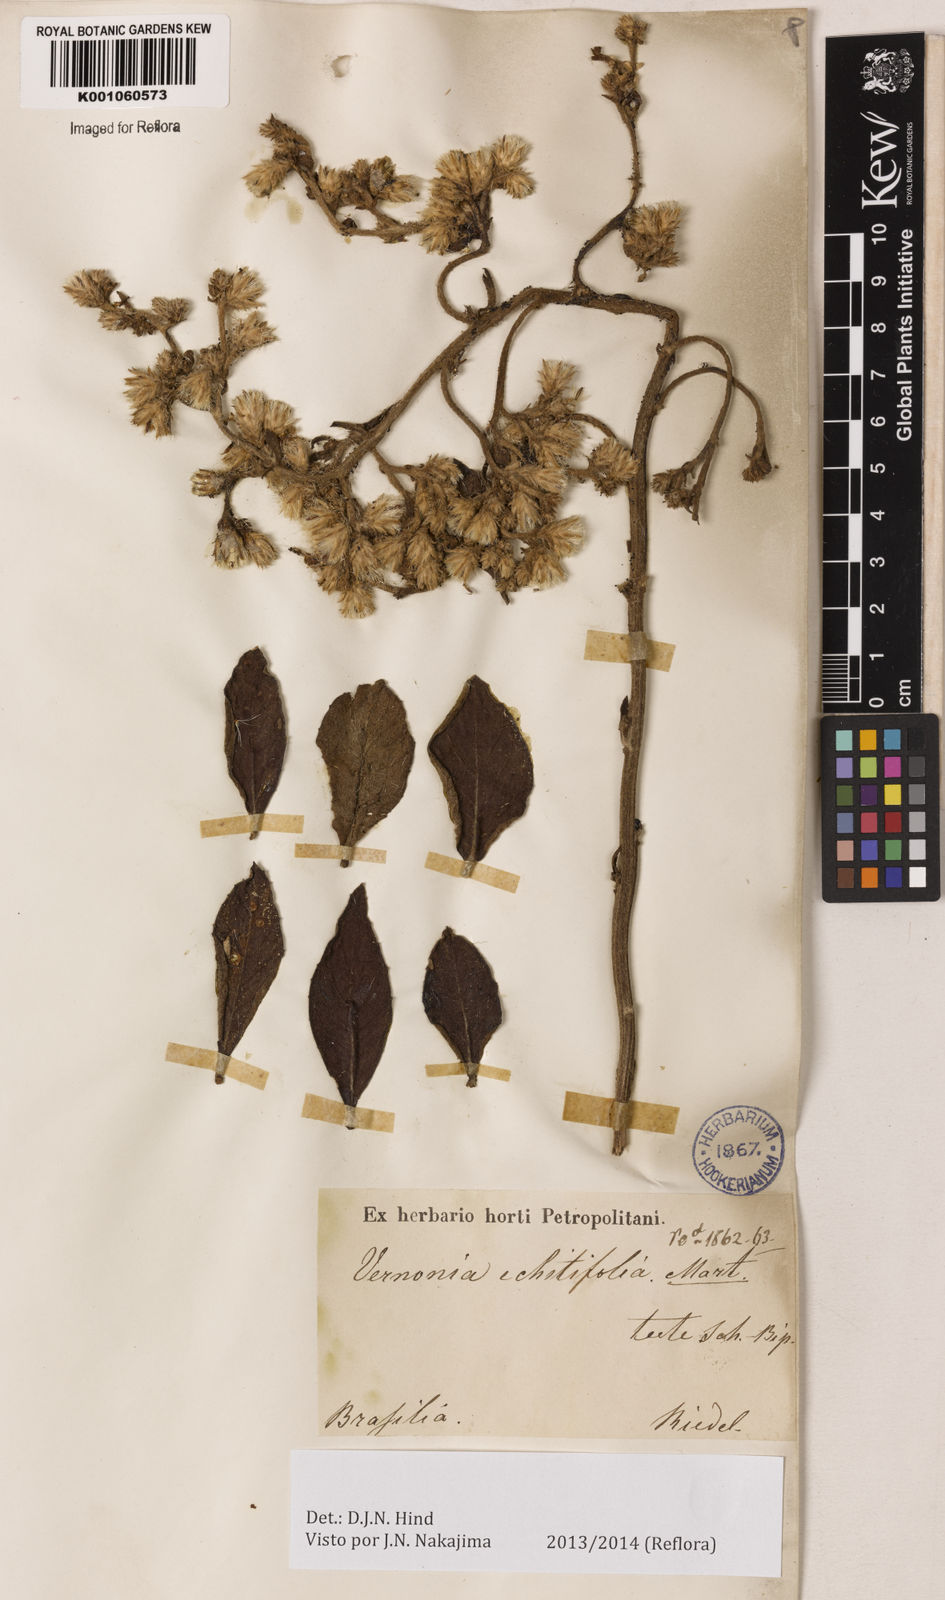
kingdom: Plantae
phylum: Tracheophyta
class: Magnoliopsida
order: Asterales
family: Asteraceae
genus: Acilepidopsis
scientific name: Acilepidopsis echitifolia
